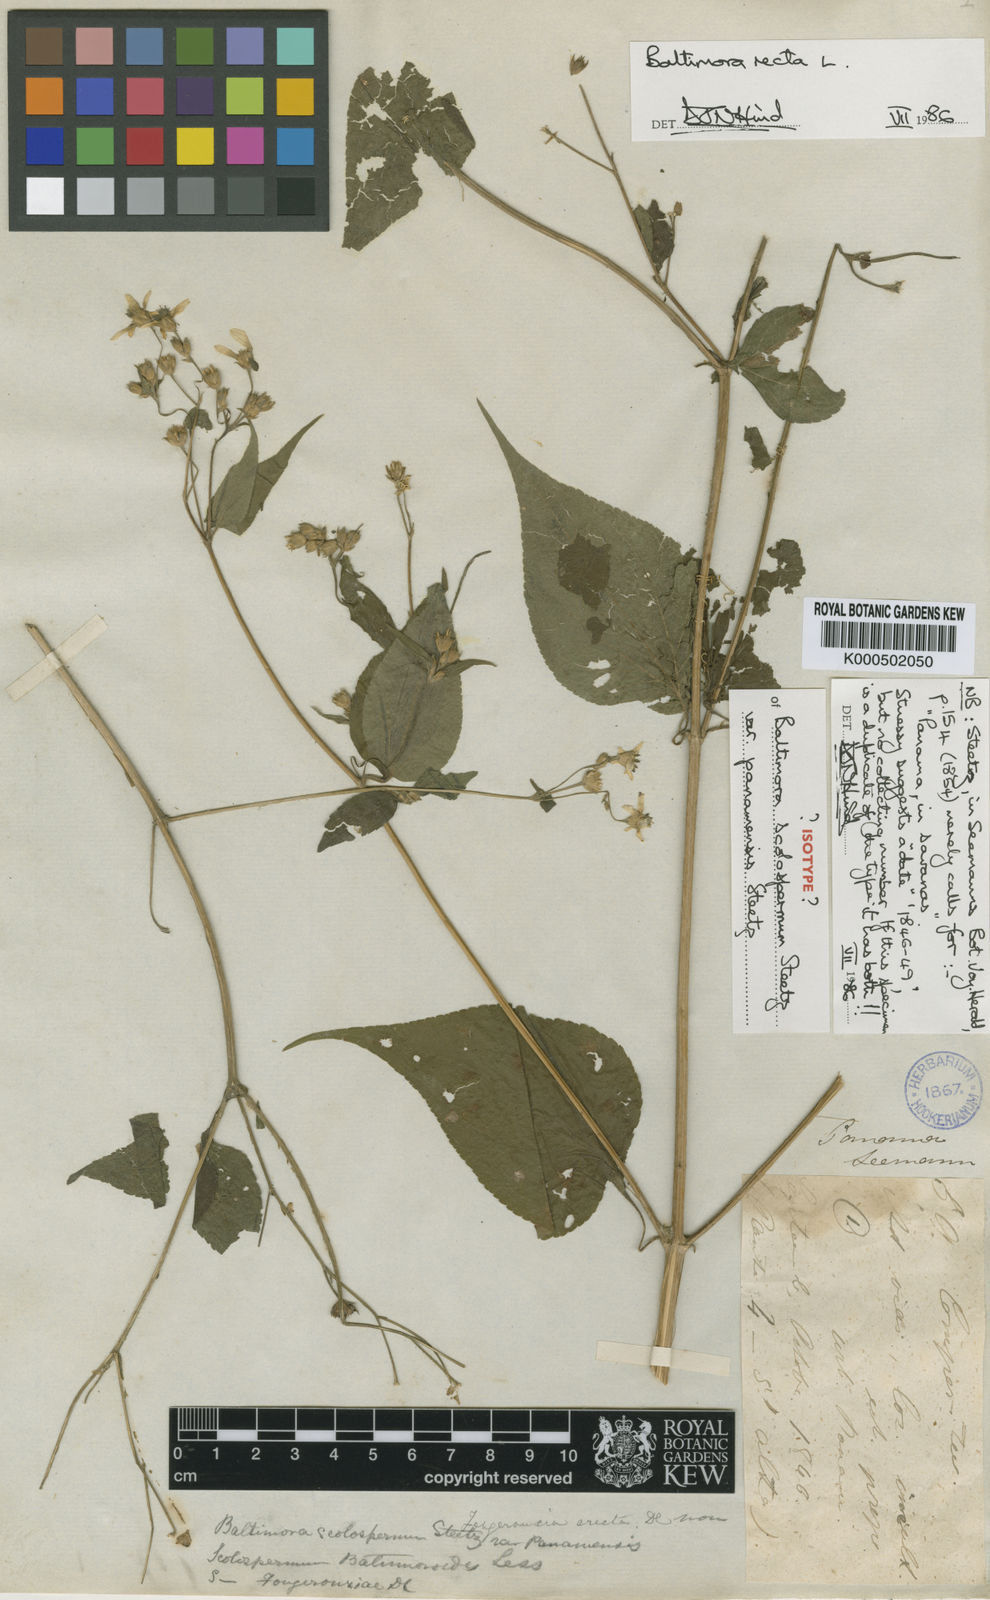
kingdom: Plantae
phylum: Tracheophyta
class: Magnoliopsida
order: Asterales
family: Asteraceae
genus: Baltimora
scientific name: Baltimora recta
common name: Beautyhead
